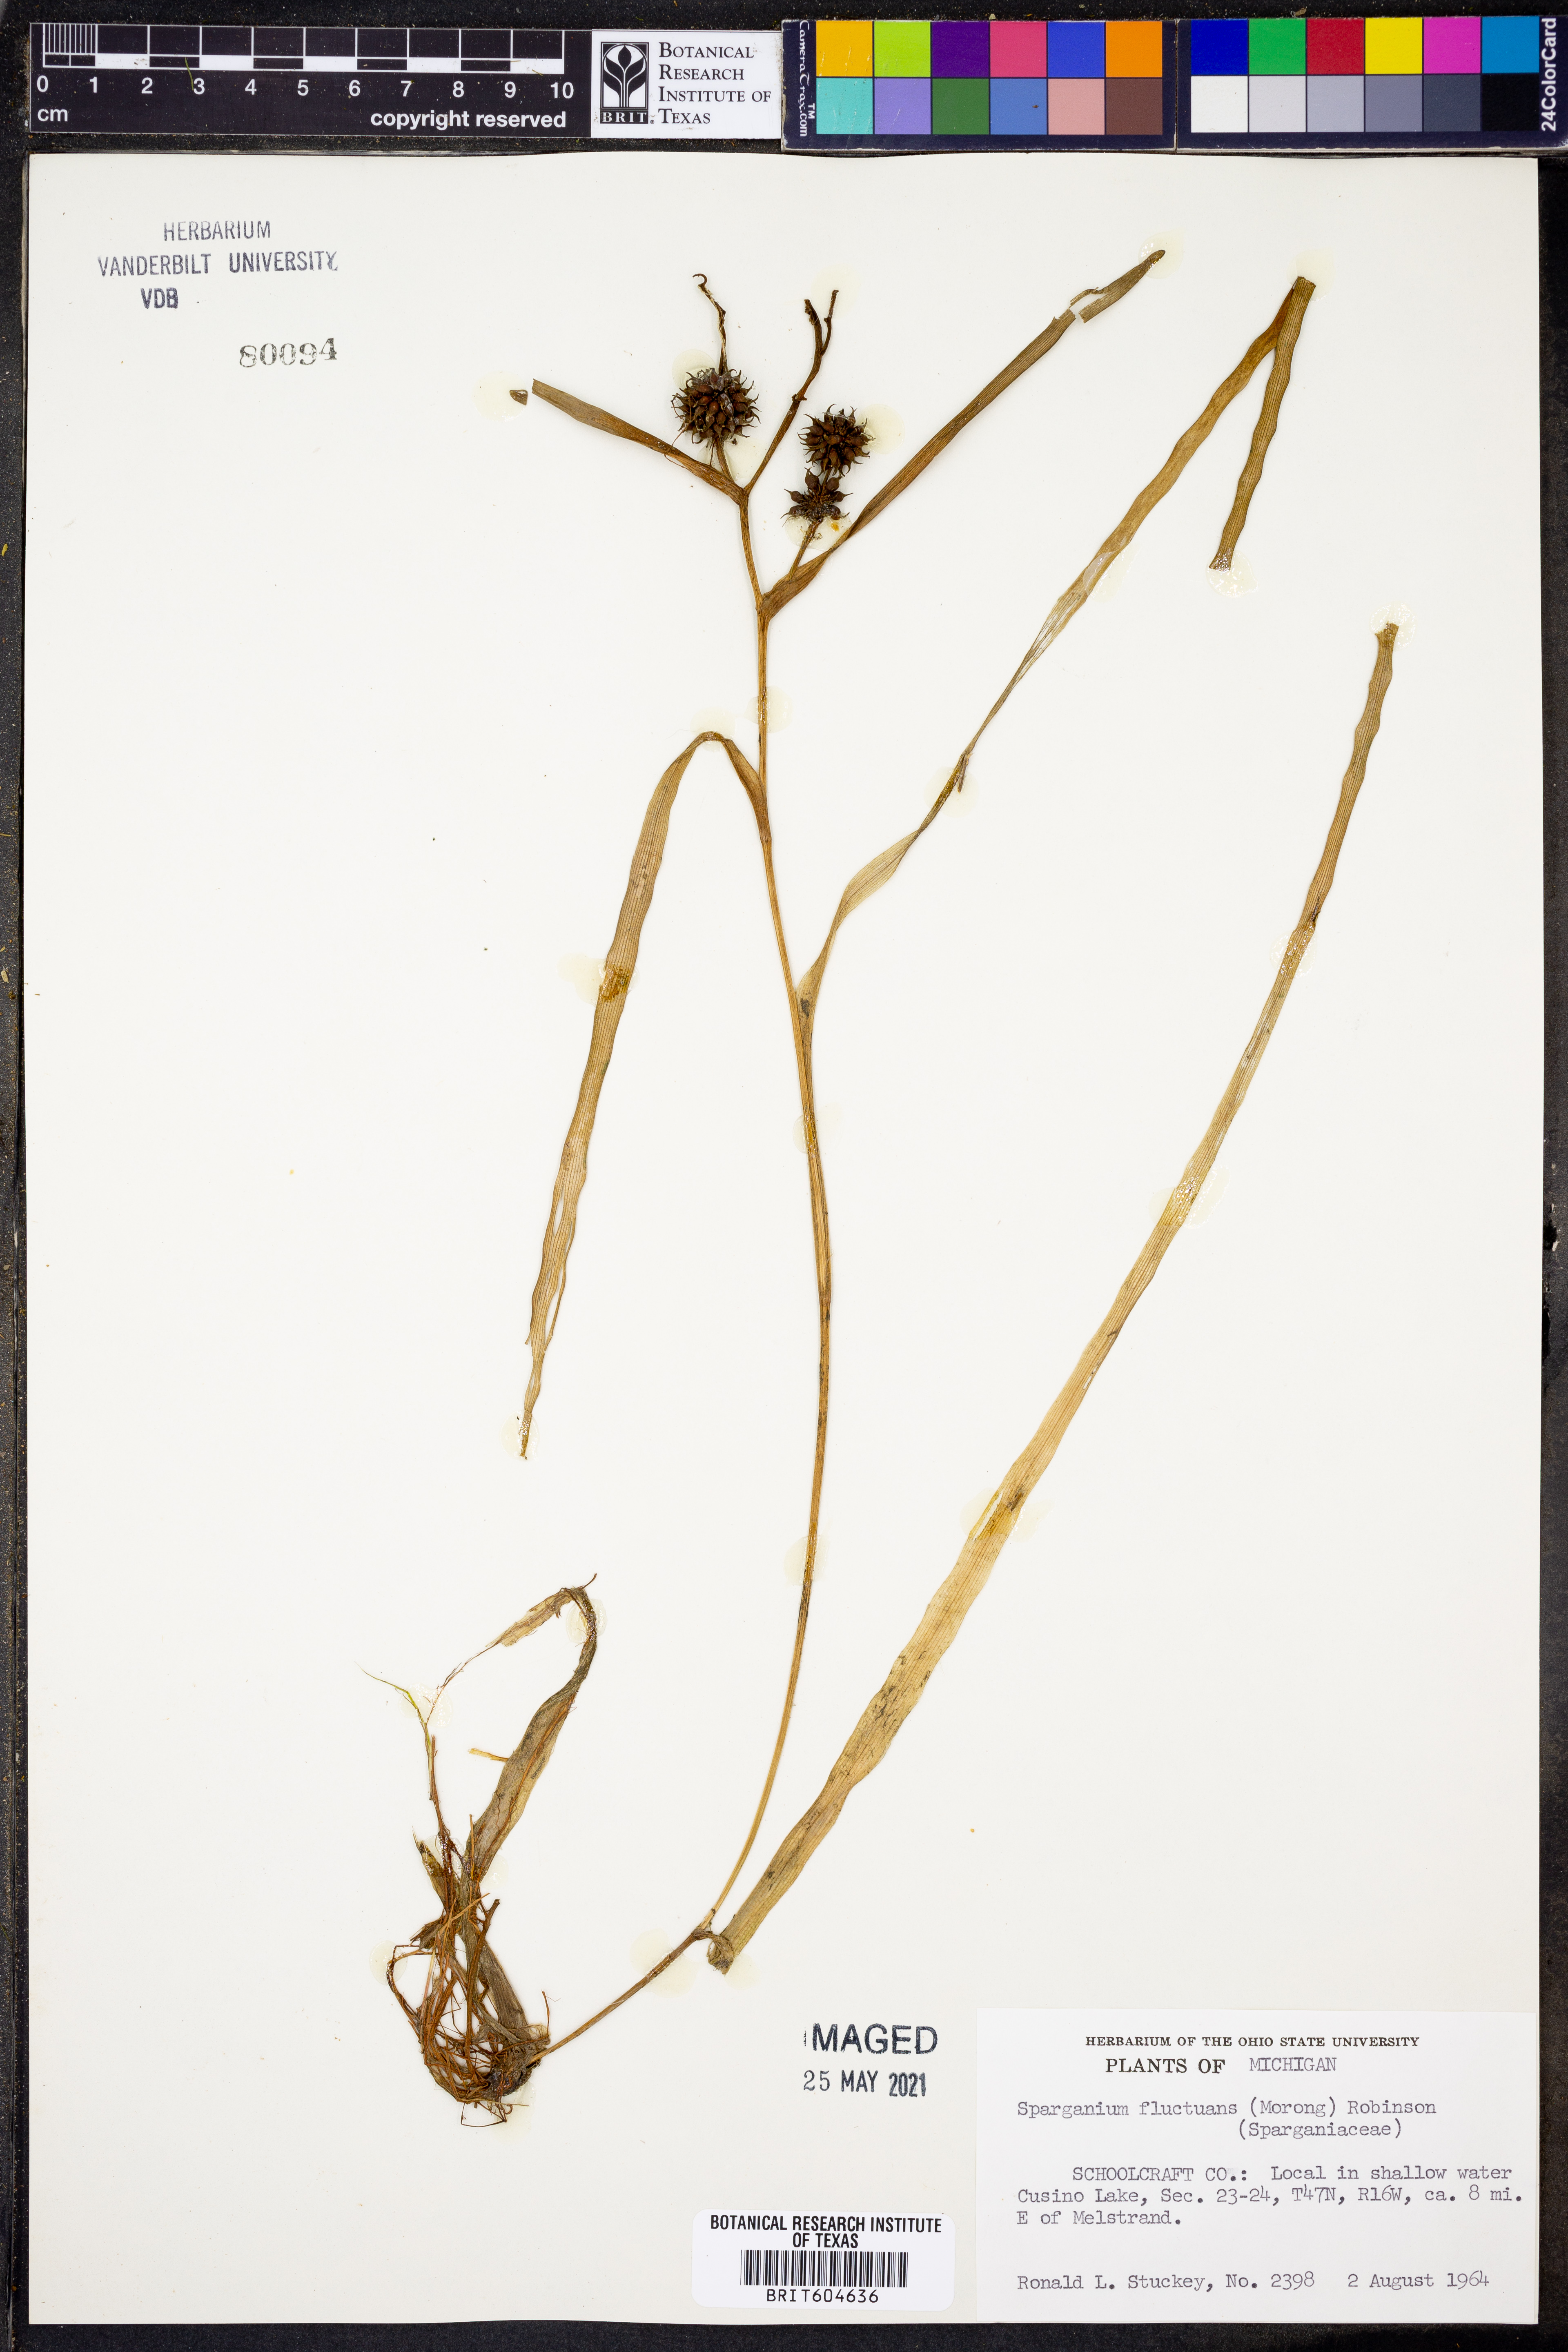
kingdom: Plantae
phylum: Tracheophyta
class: Liliopsida
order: Poales
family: Typhaceae
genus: Sparganium
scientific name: Sparganium fluctuans
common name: Floating burreed
